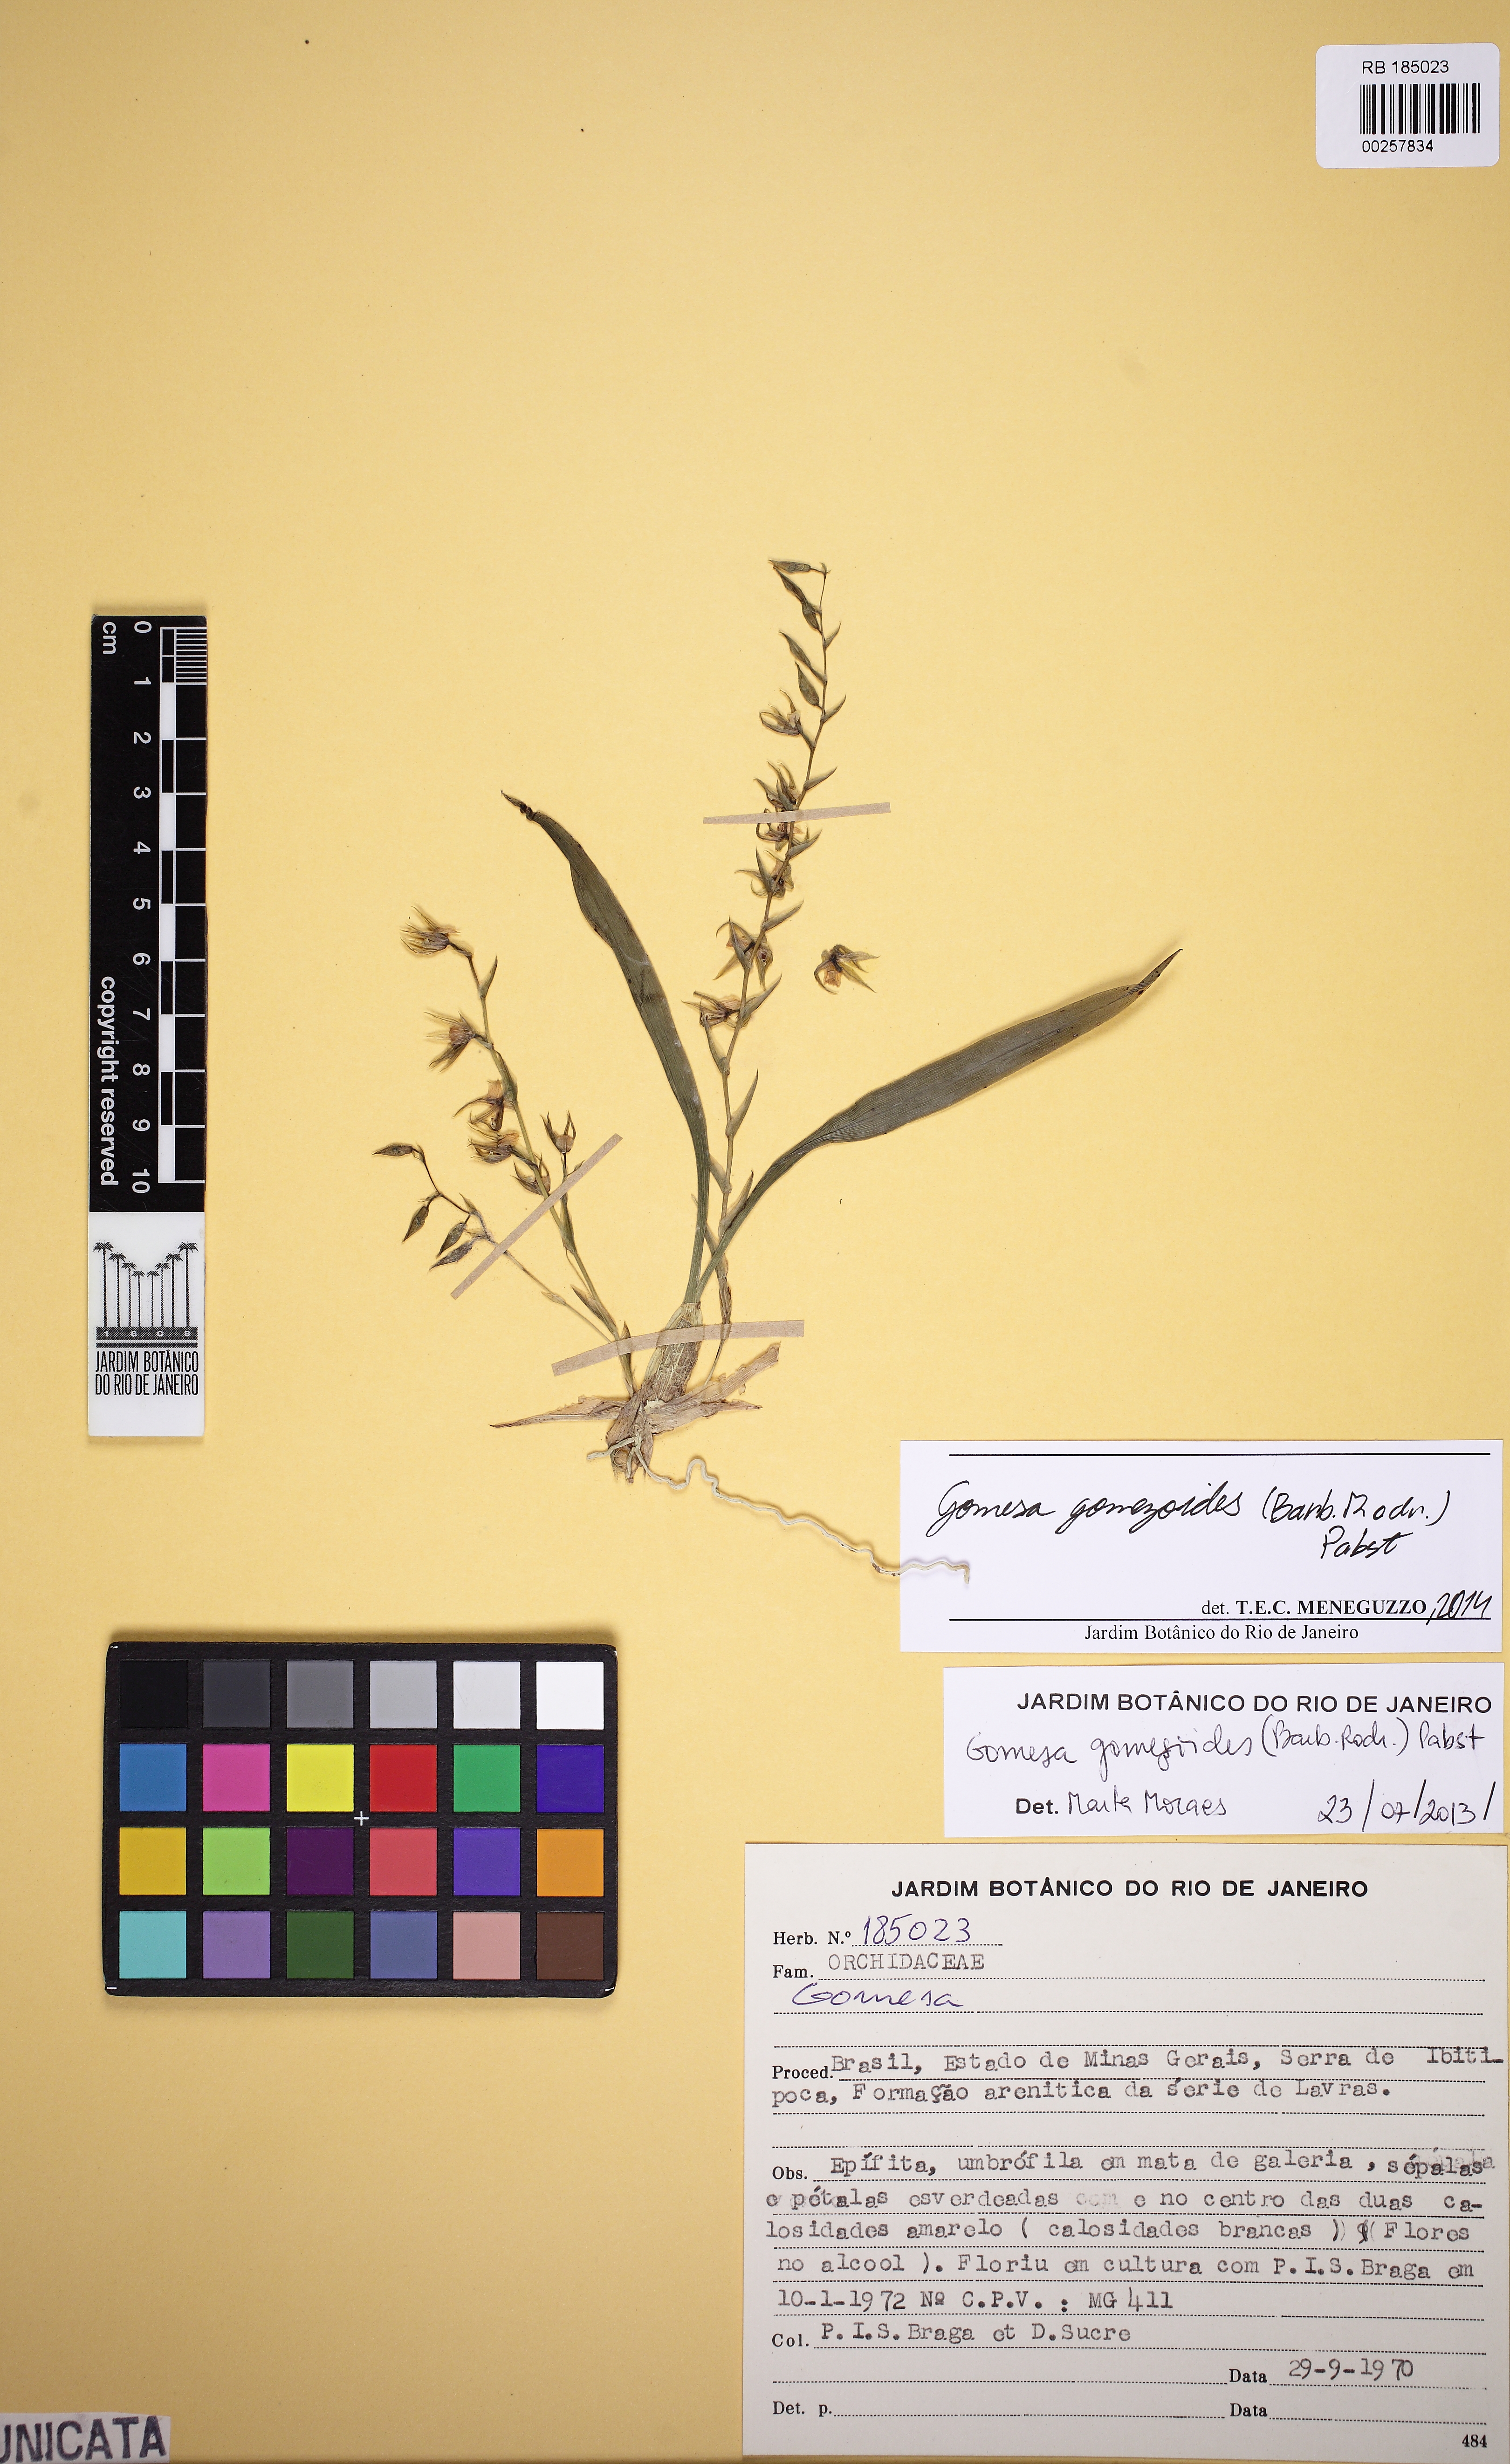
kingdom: Plantae
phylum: Tracheophyta
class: Liliopsida
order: Asparagales
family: Orchidaceae
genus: Gomesa
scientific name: Gomesa gomezoides
